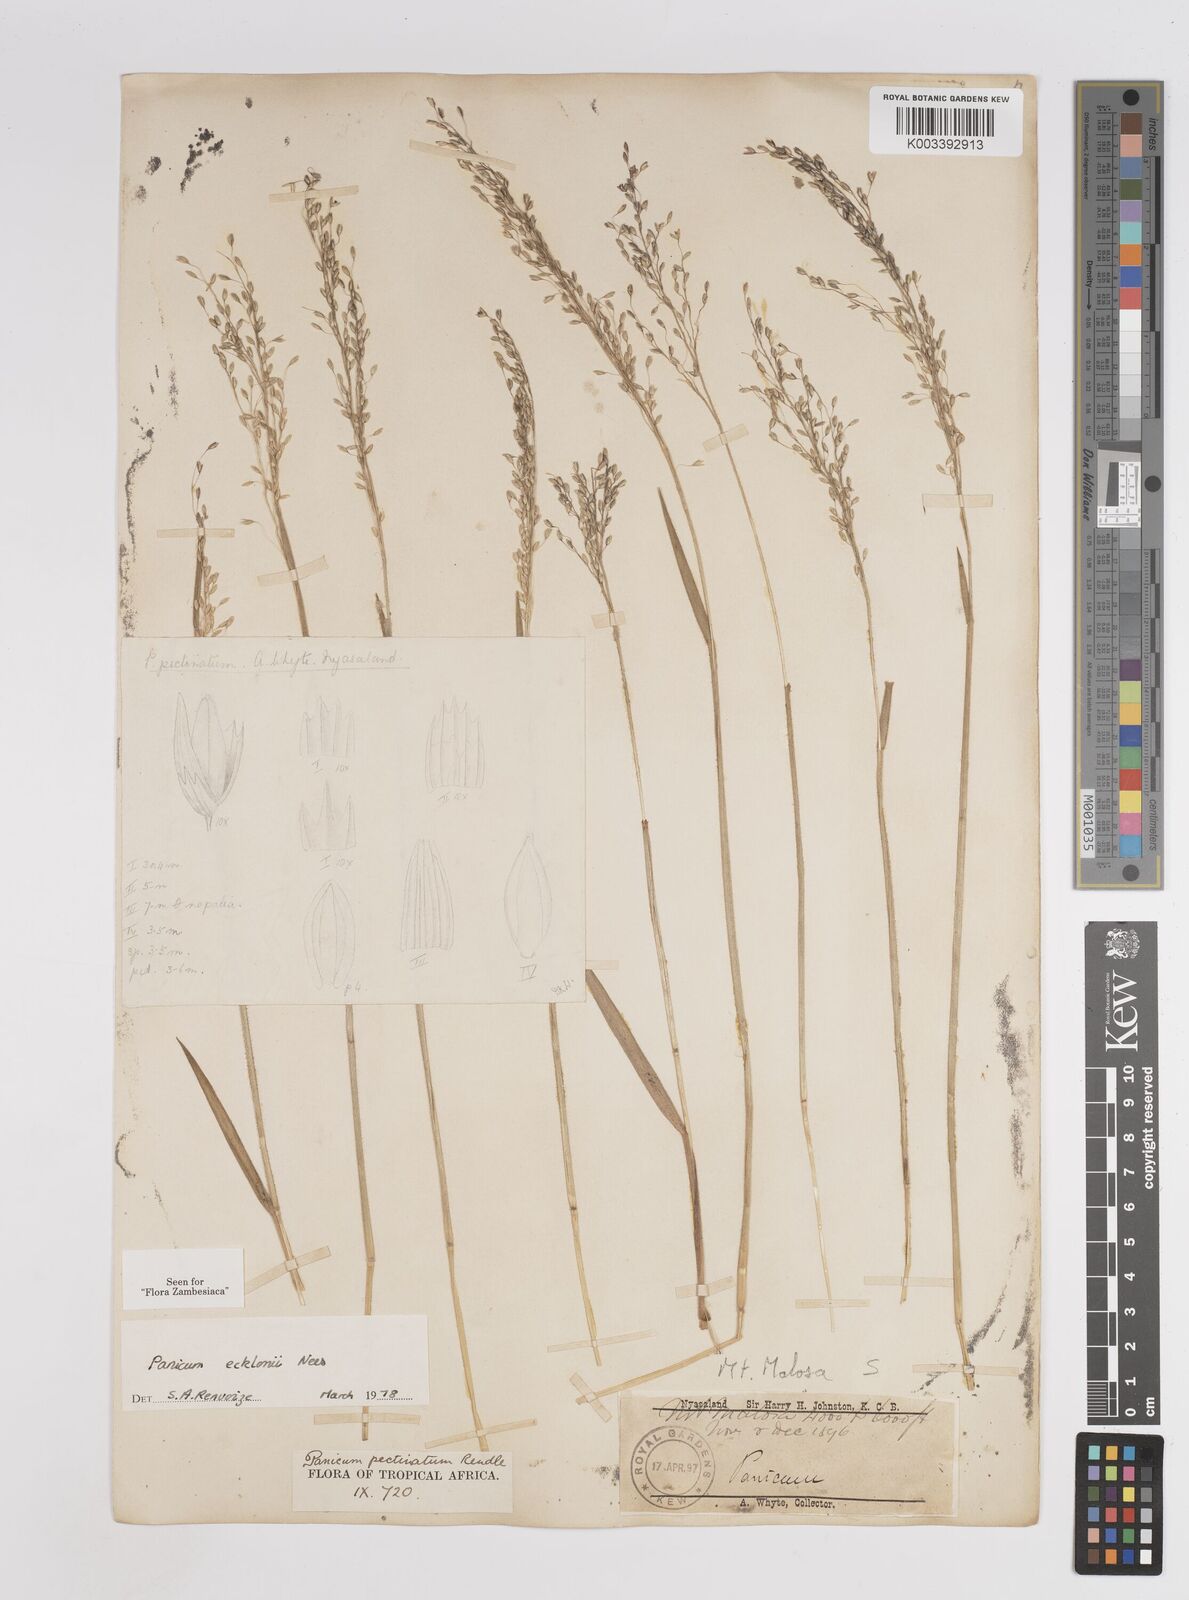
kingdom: Plantae
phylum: Tracheophyta
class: Liliopsida
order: Poales
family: Poaceae
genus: Adenochloa
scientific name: Adenochloa ecklonii
